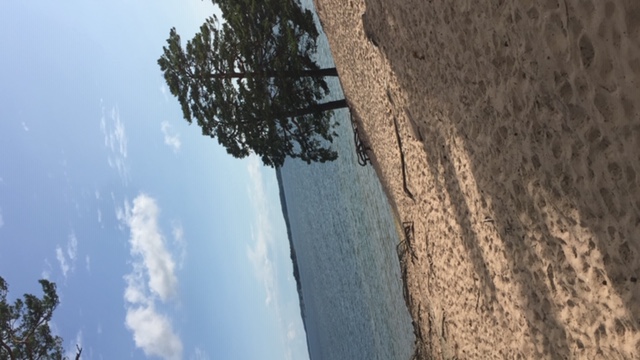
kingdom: Plantae
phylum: Tracheophyta
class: Pinopsida
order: Pinales
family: Pinaceae
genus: Pinus
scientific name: Pinus sylvestris
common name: Scots pine
